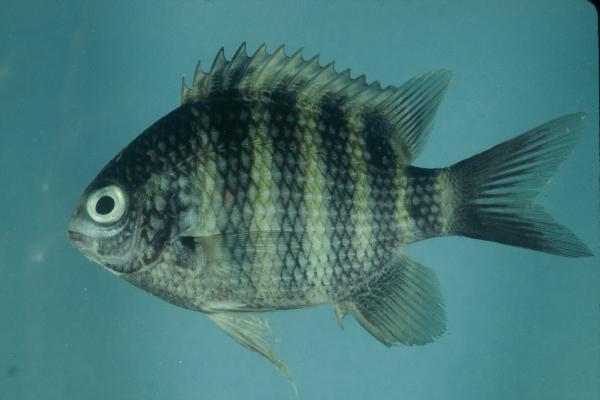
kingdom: Animalia
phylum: Chordata
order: Perciformes
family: Pomacentridae
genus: Abudefduf
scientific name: Abudefduf sordidus
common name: Blackspot sergeant
